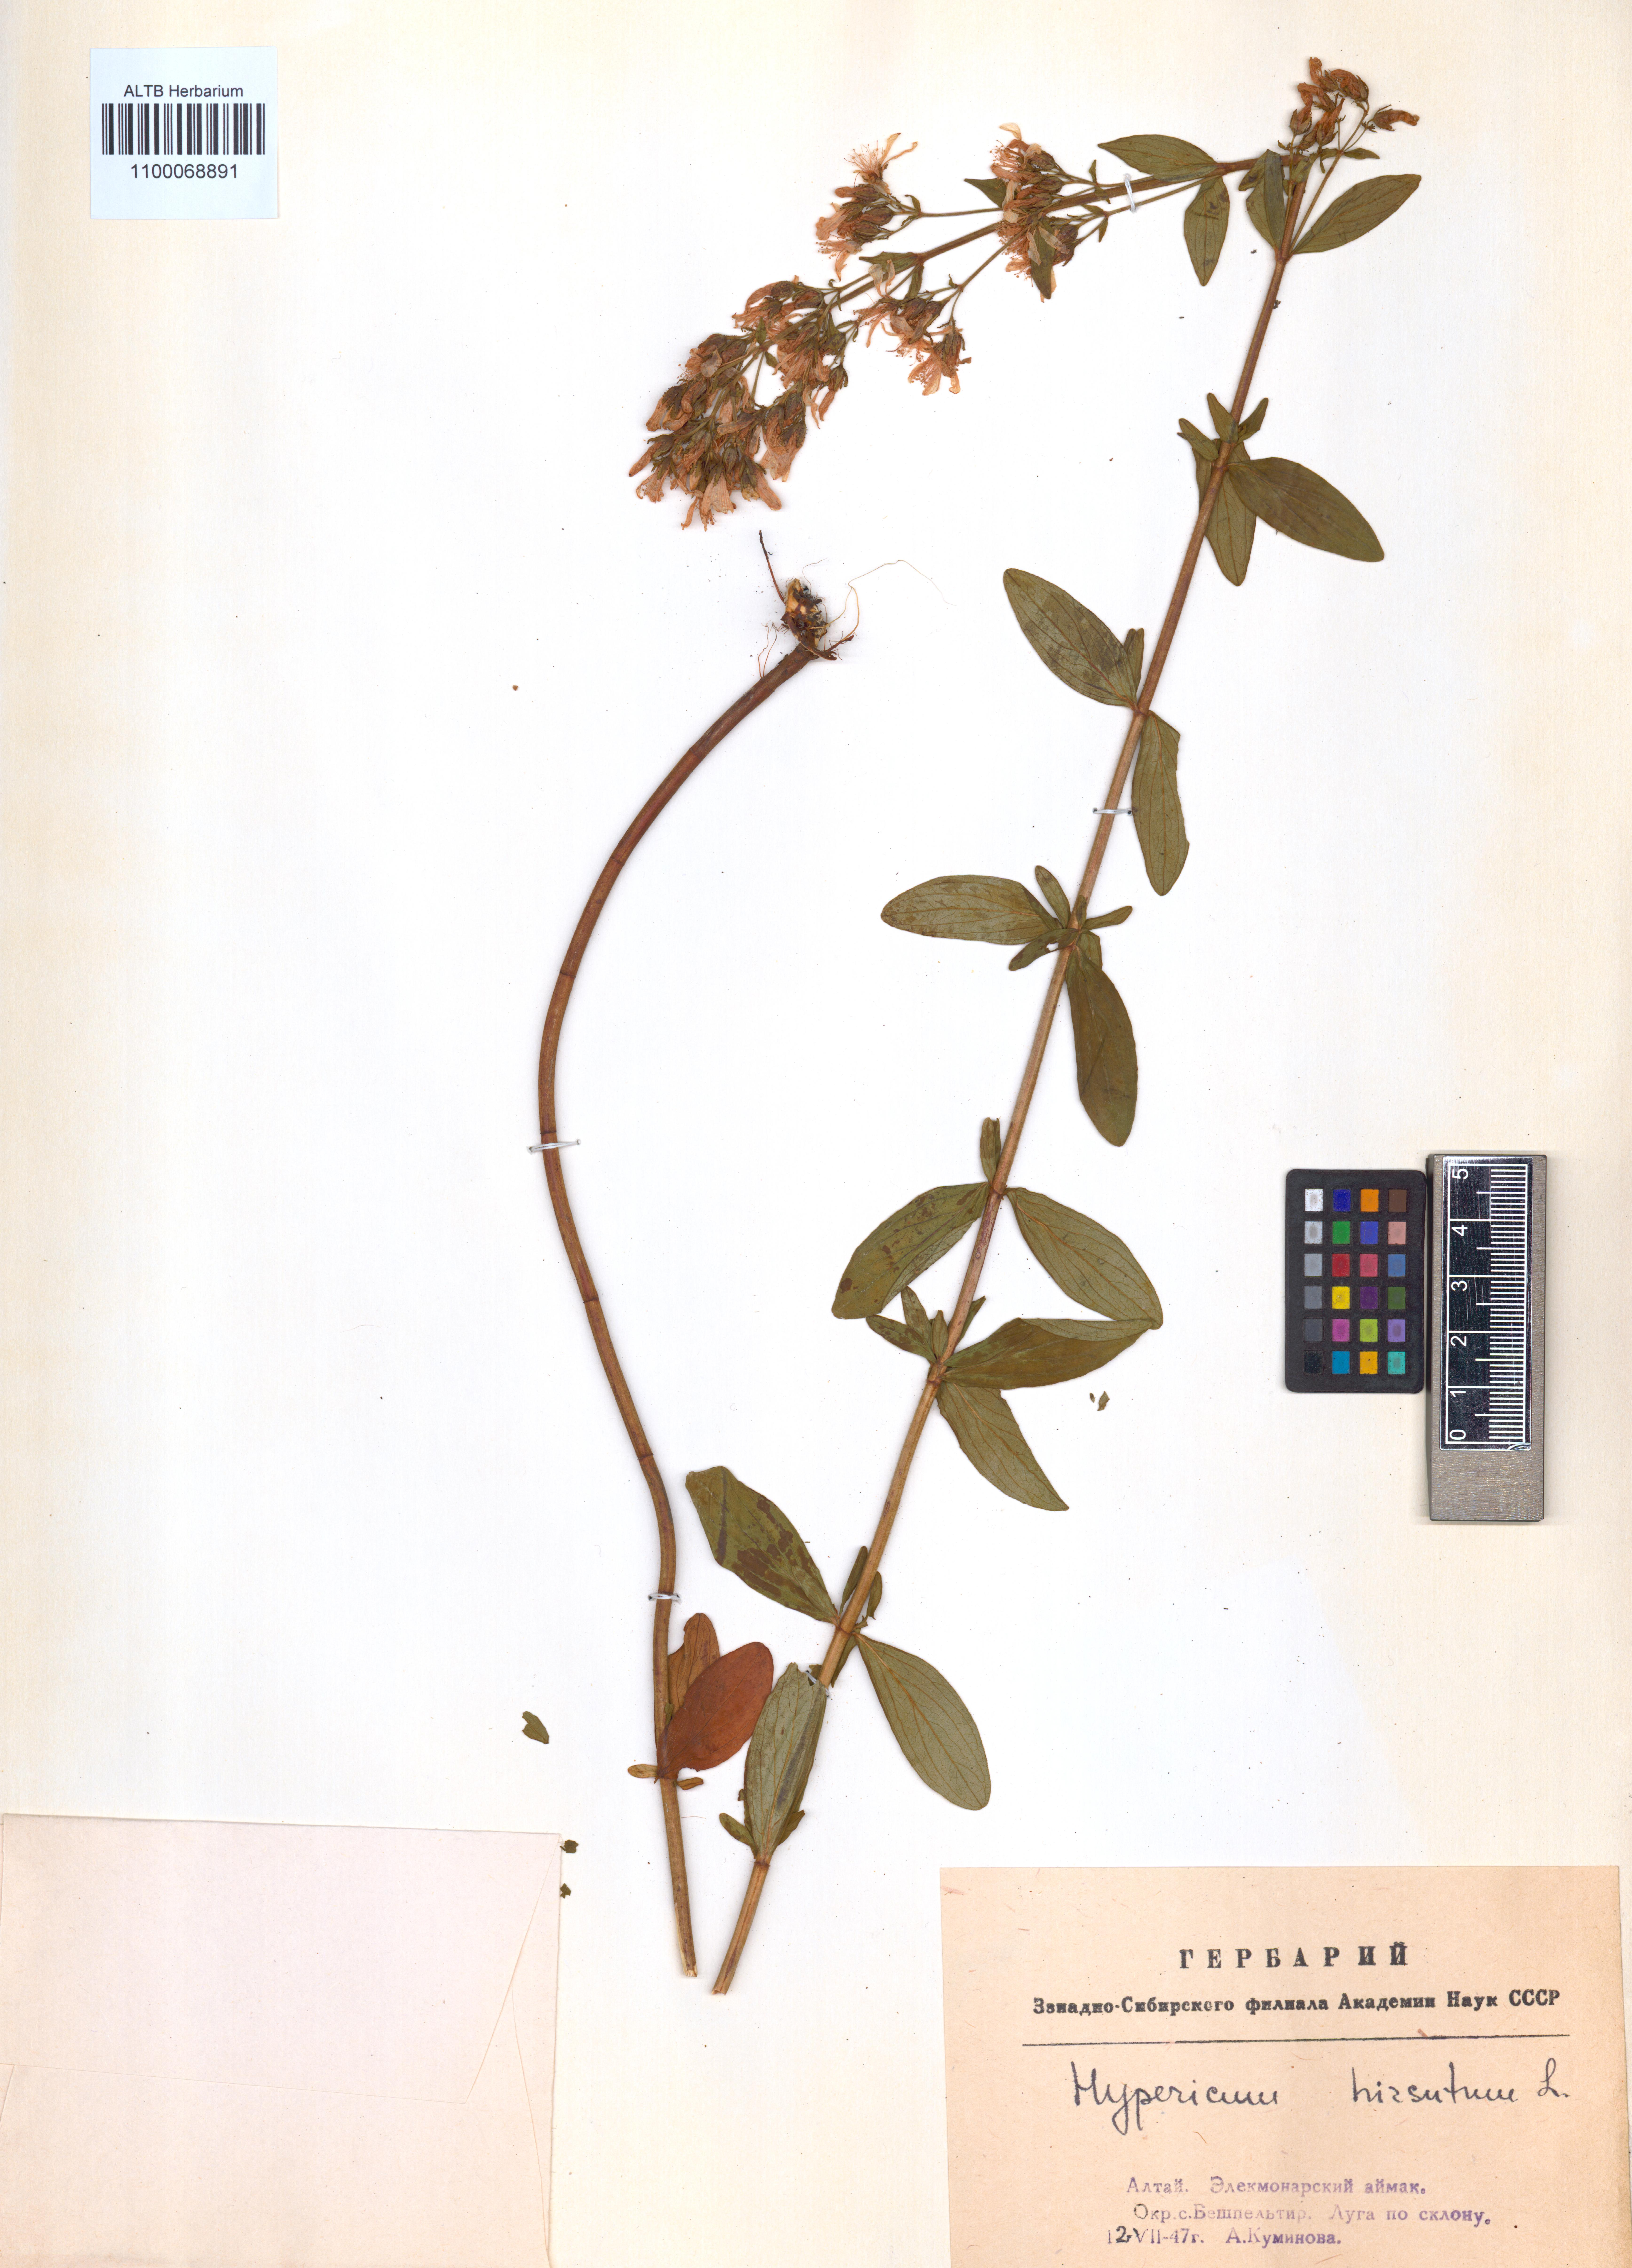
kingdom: Plantae
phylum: Tracheophyta
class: Magnoliopsida
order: Malpighiales
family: Hypericaceae
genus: Hypericum
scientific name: Hypericum hirsutum
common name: Hairy st. john's-wort
